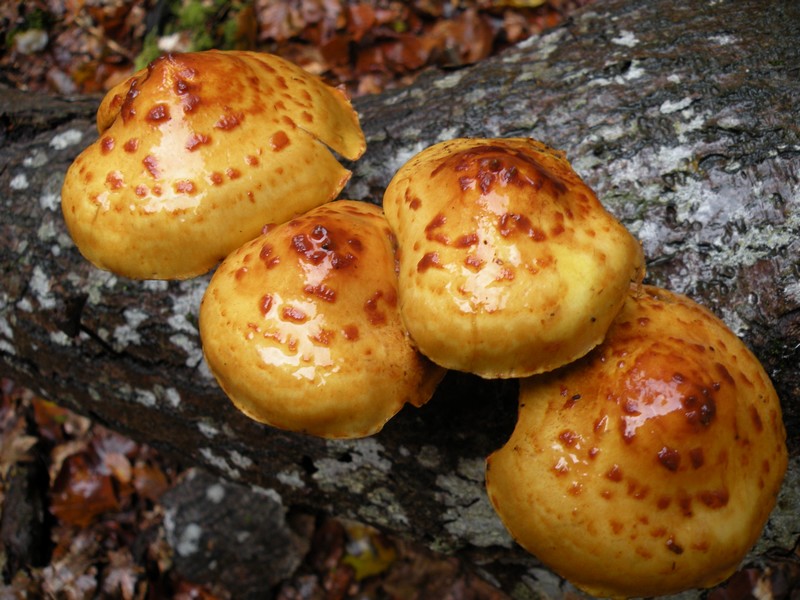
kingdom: Fungi
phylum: Basidiomycota
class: Agaricomycetes
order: Agaricales
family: Strophariaceae
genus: Pholiota
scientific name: Pholiota adiposa
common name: højtsiddende skælhat
